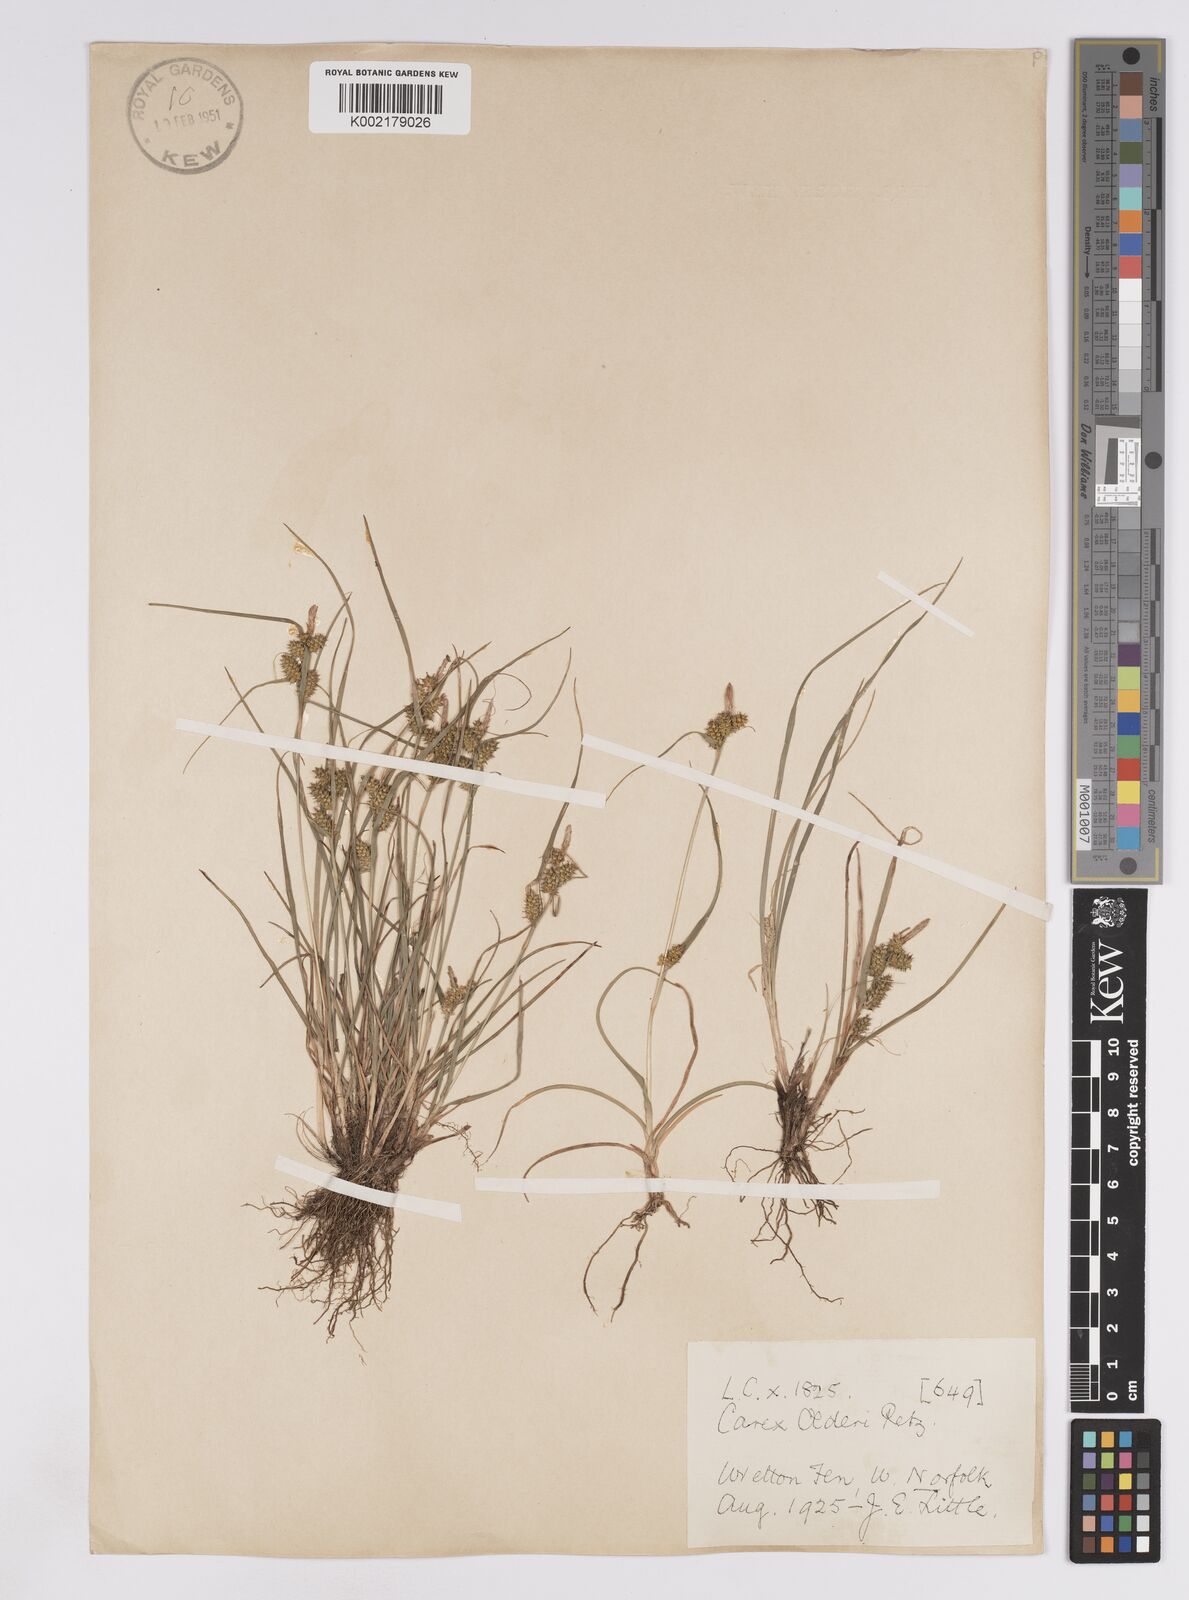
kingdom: Plantae
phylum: Tracheophyta
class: Liliopsida
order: Poales
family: Cyperaceae
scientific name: Cyperaceae
